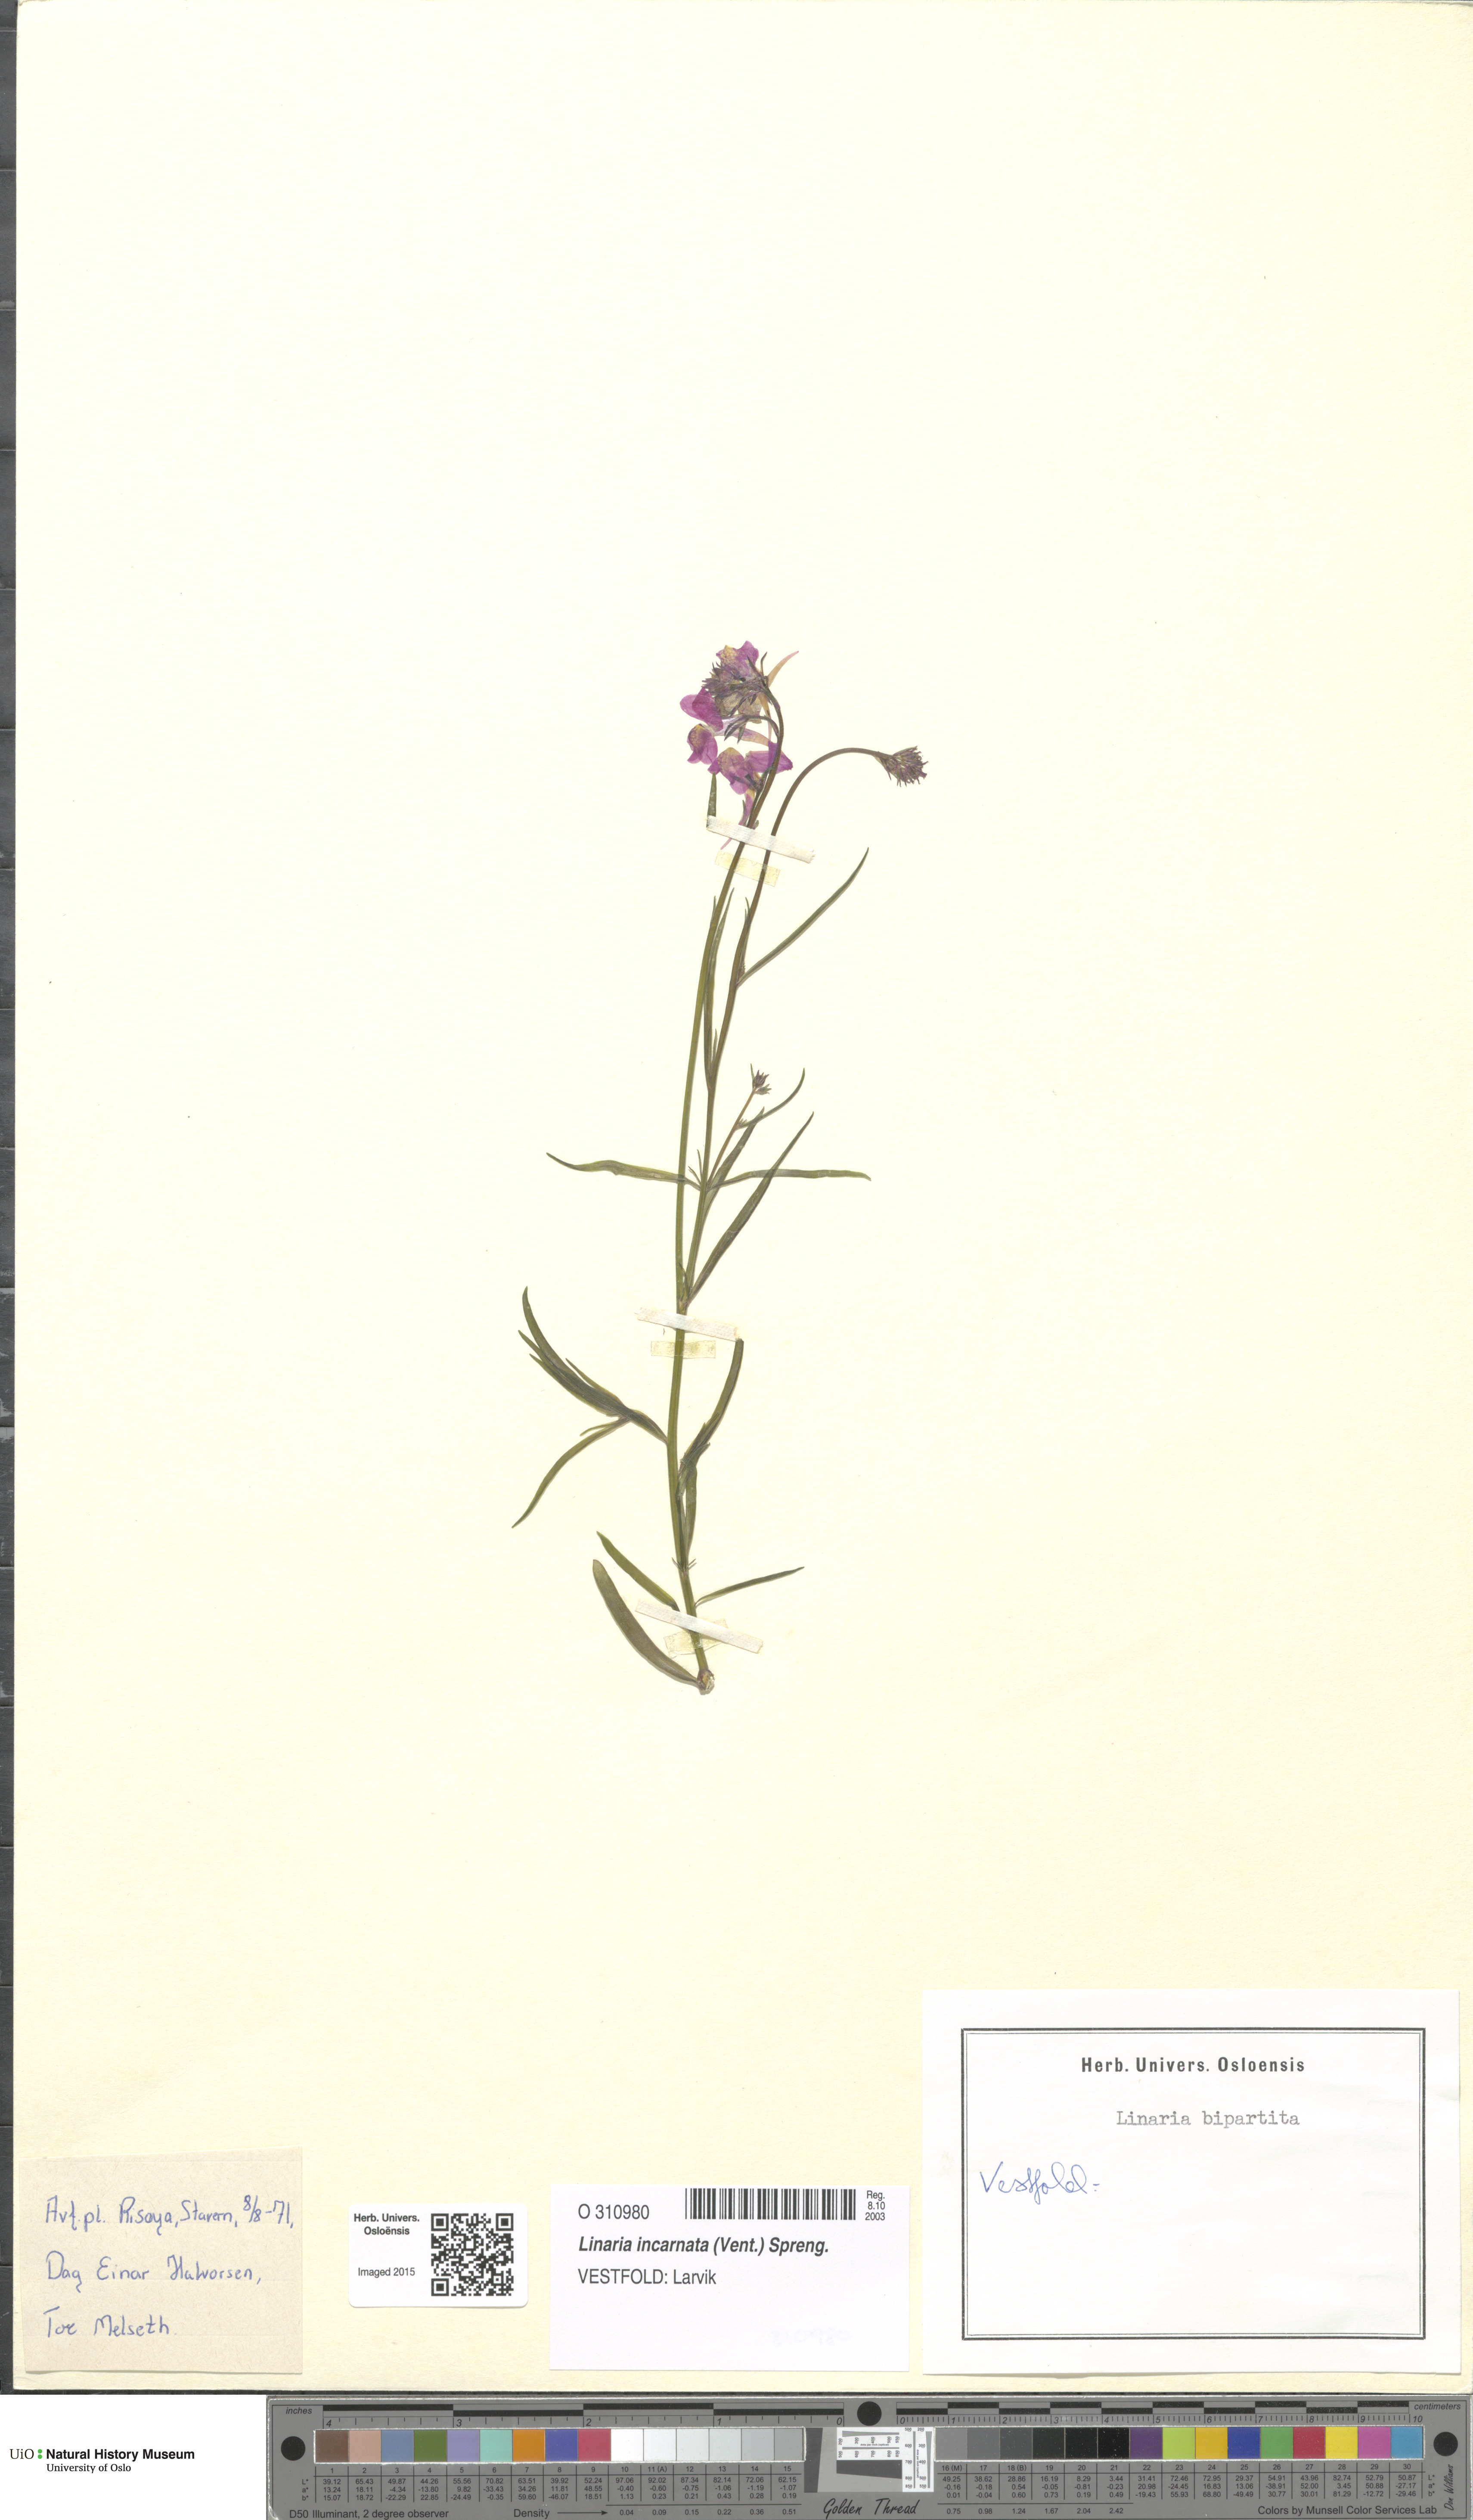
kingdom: Plantae
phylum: Tracheophyta
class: Magnoliopsida
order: Lamiales
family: Plantaginaceae
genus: Linaria
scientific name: Linaria incarnata
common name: Annual toadflax
